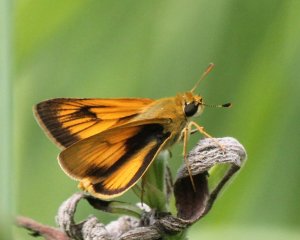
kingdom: Animalia
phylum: Arthropoda
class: Insecta
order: Lepidoptera
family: Hesperiidae
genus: Atrytone
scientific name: Atrytone delaware
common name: Delaware Skipper
